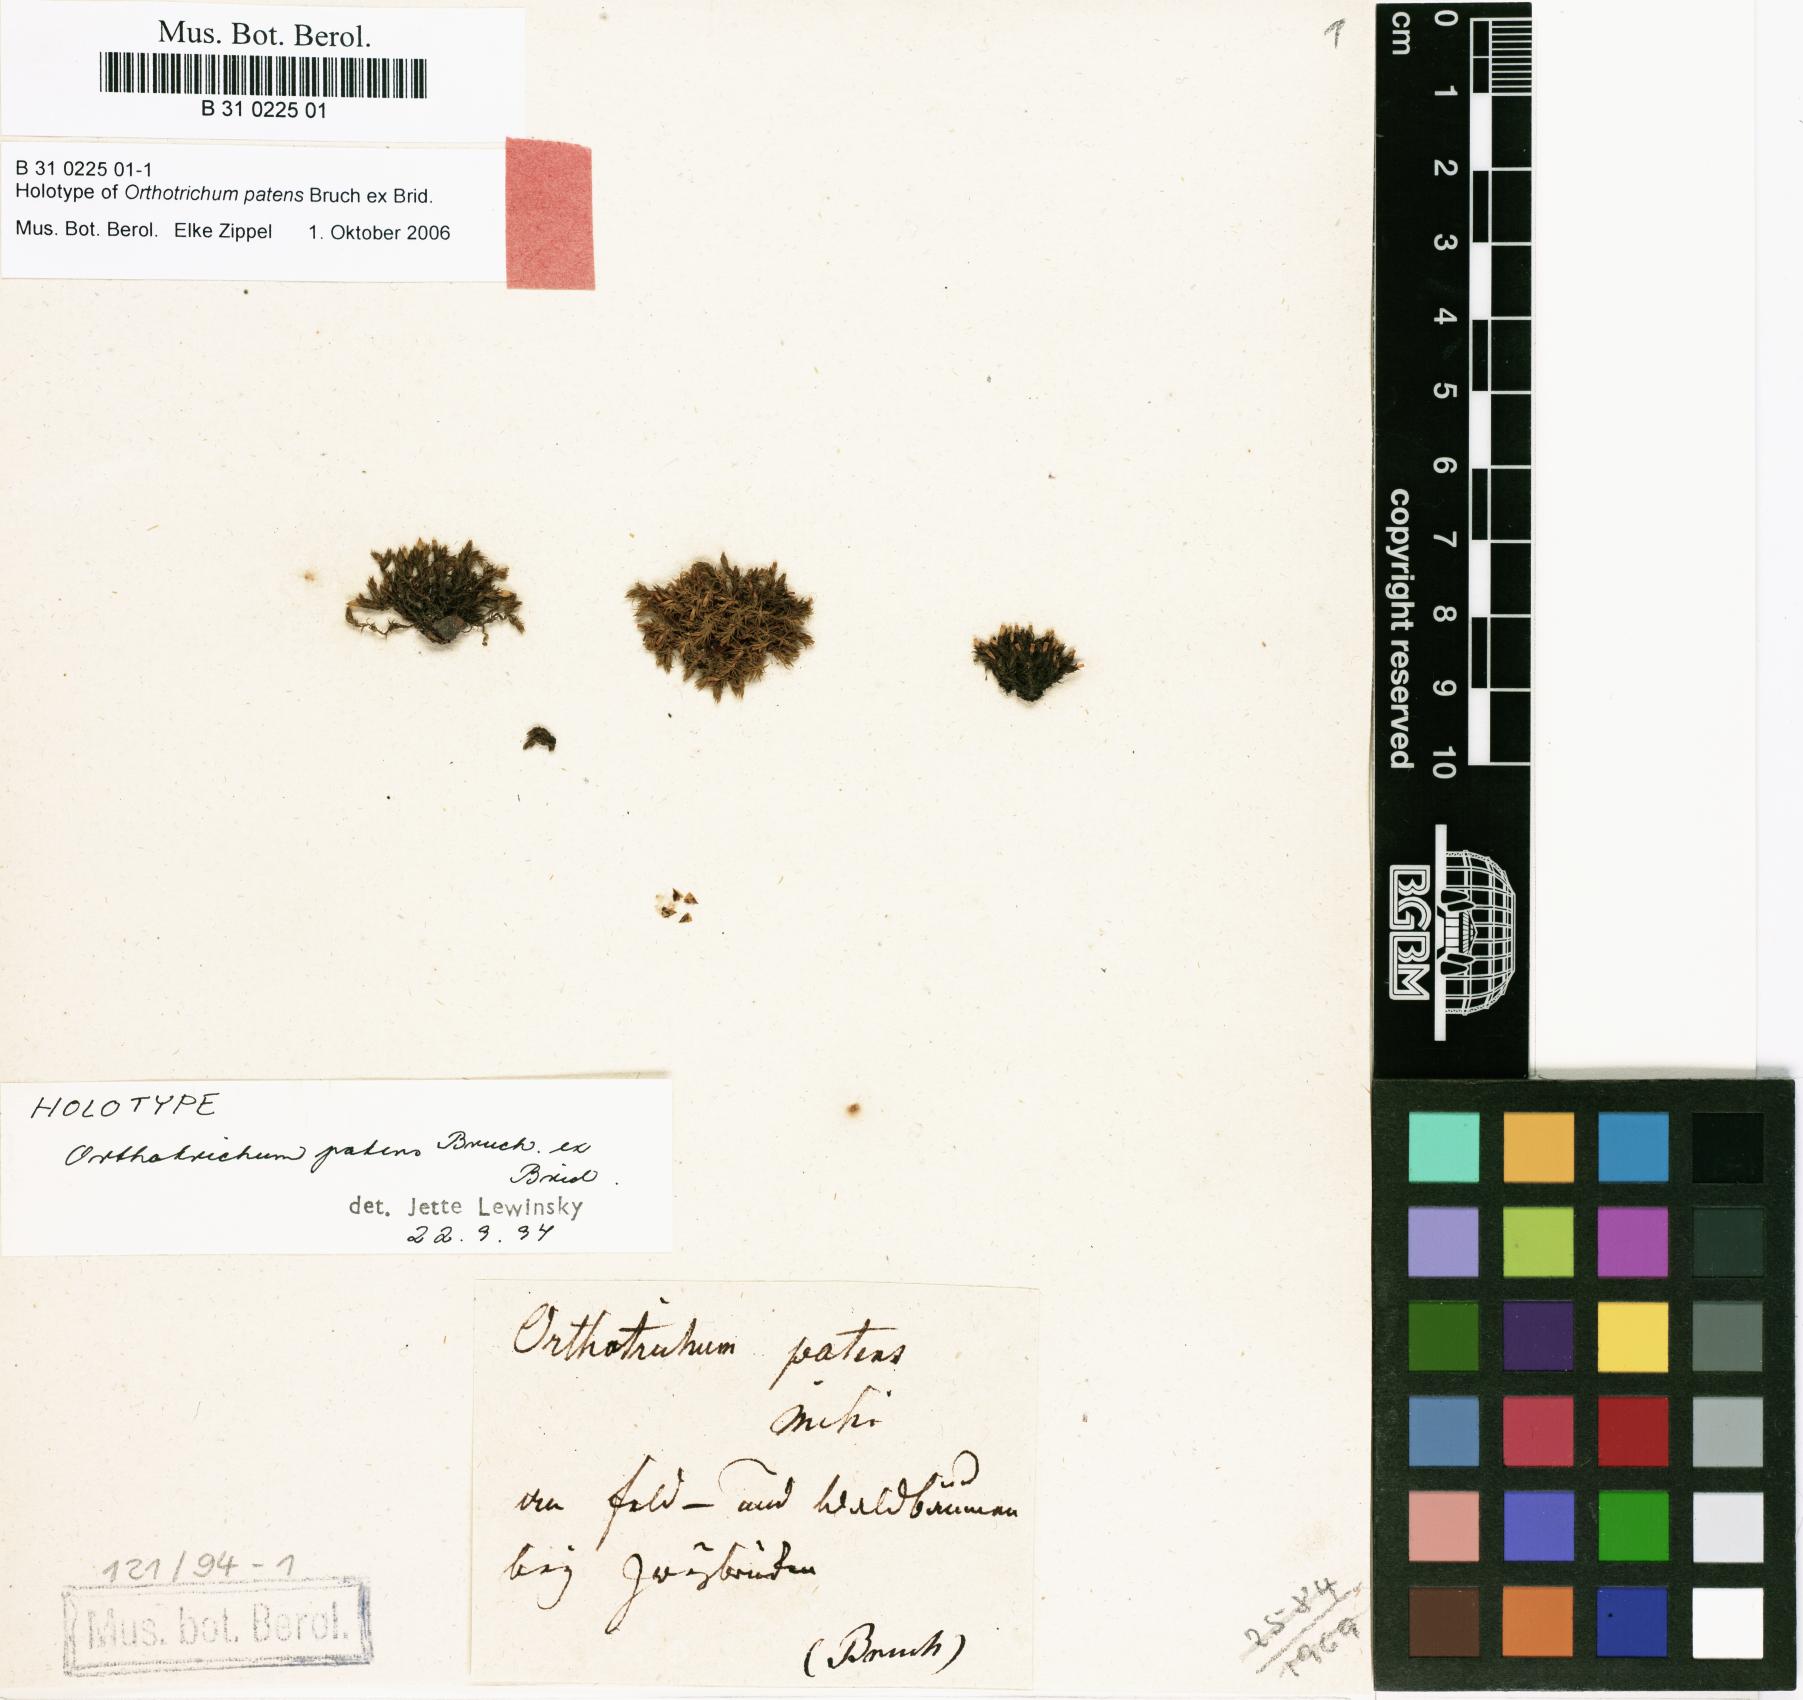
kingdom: Plantae
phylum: Bryophyta
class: Bryopsida
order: Orthotrichales
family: Orthotrichaceae
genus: Orthotrichum
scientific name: Orthotrichum patens
